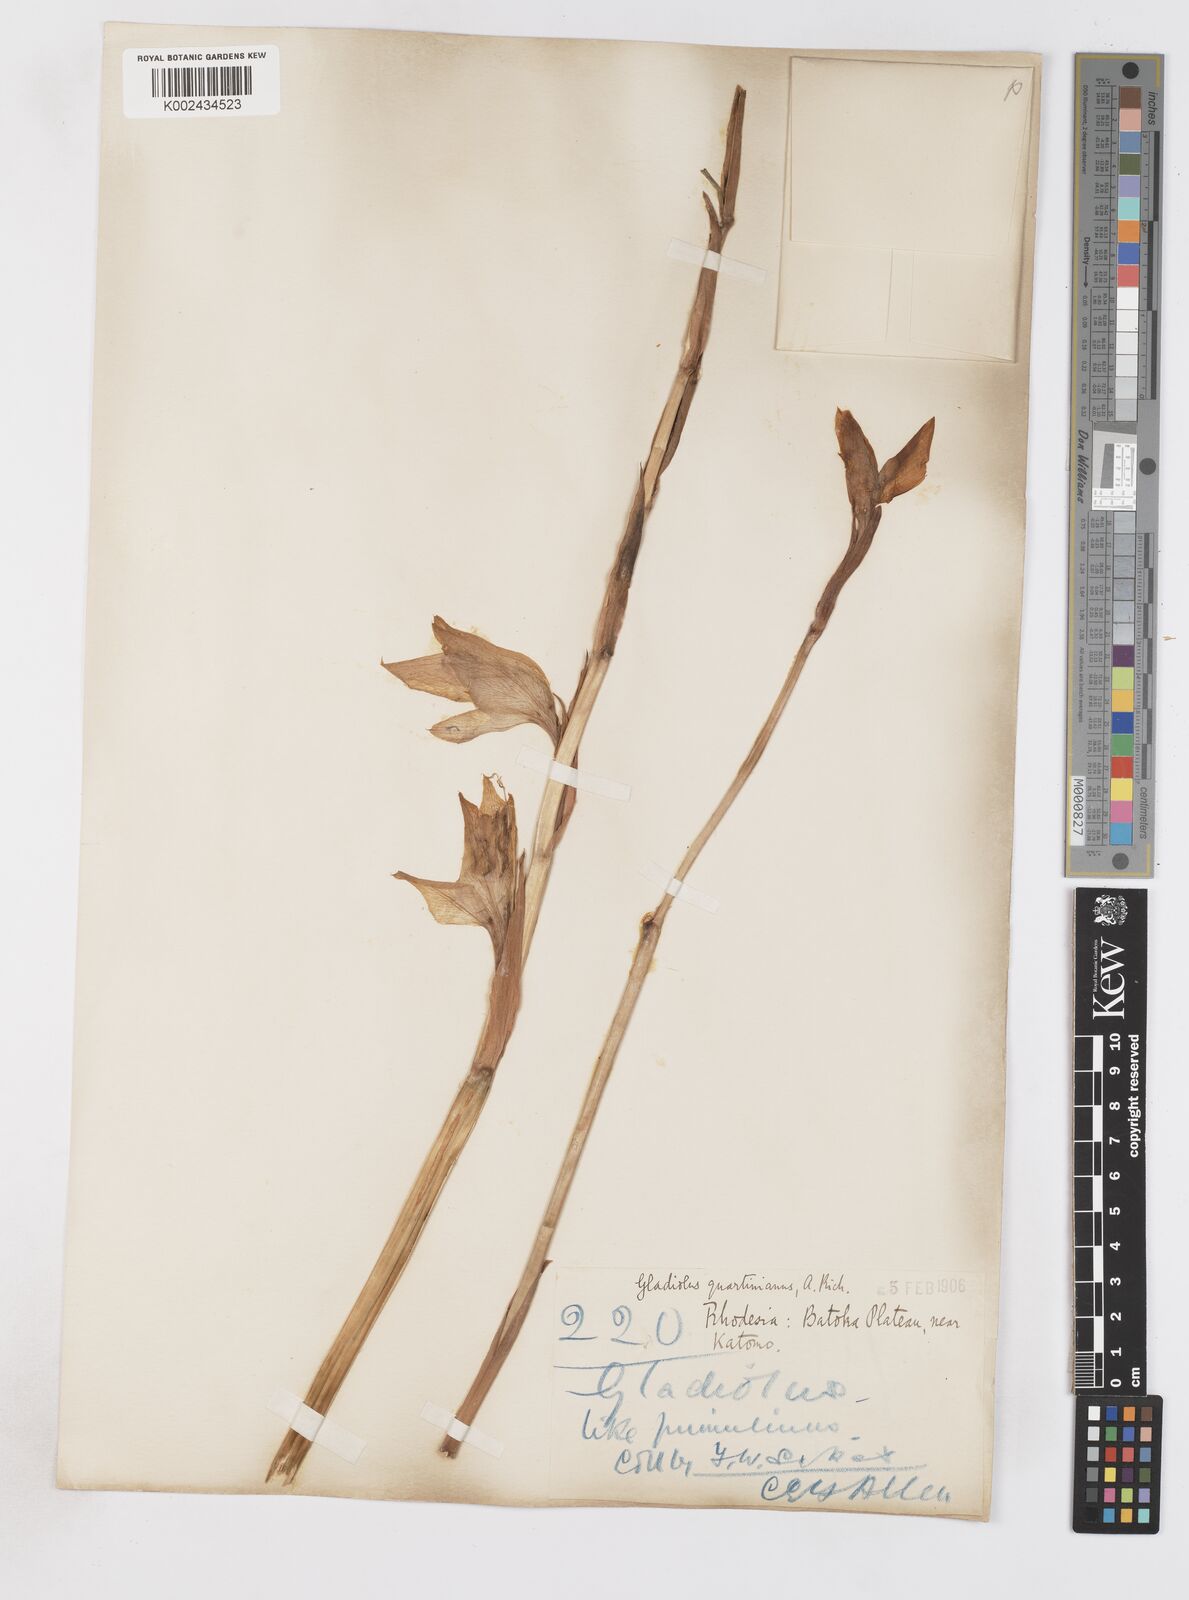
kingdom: Plantae
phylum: Tracheophyta
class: Liliopsida
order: Asparagales
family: Iridaceae
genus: Gladiolus
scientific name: Gladiolus dalenii
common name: Cornflag
